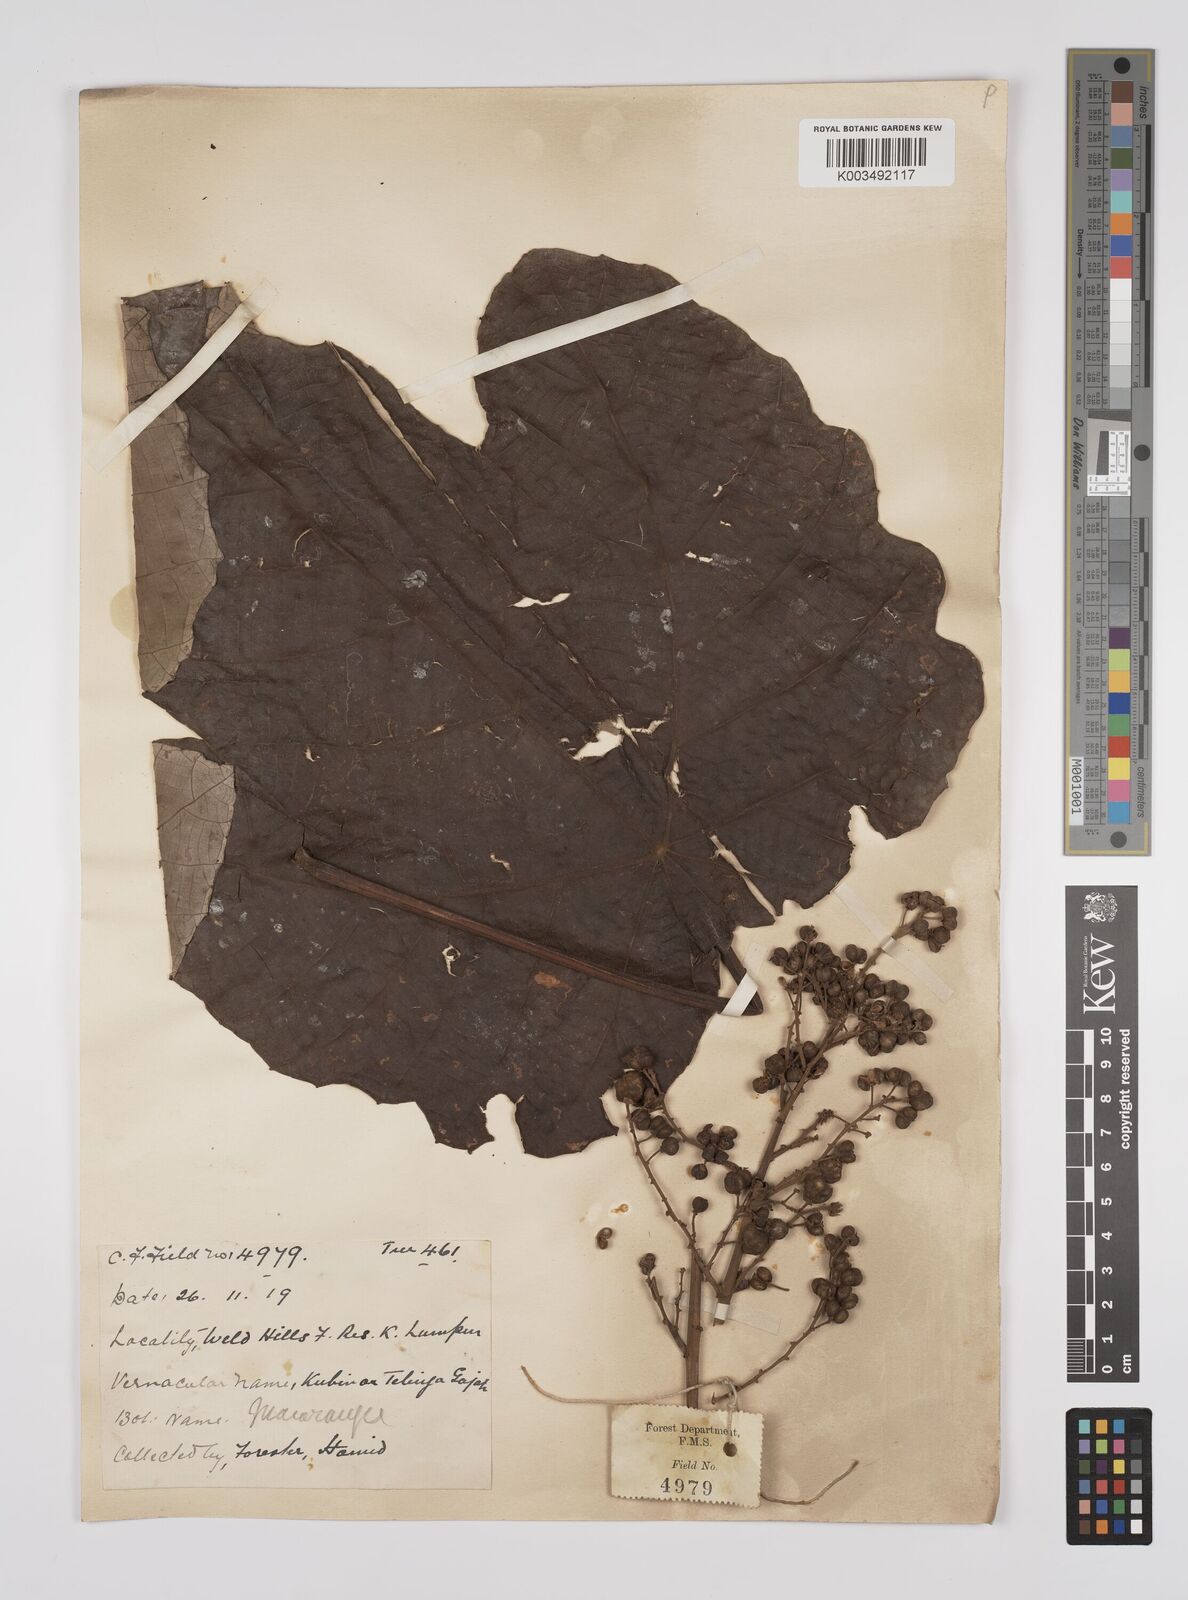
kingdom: Plantae
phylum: Tracheophyta
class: Magnoliopsida
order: Malpighiales
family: Euphorbiaceae
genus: Macaranga
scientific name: Macaranga gigantea
